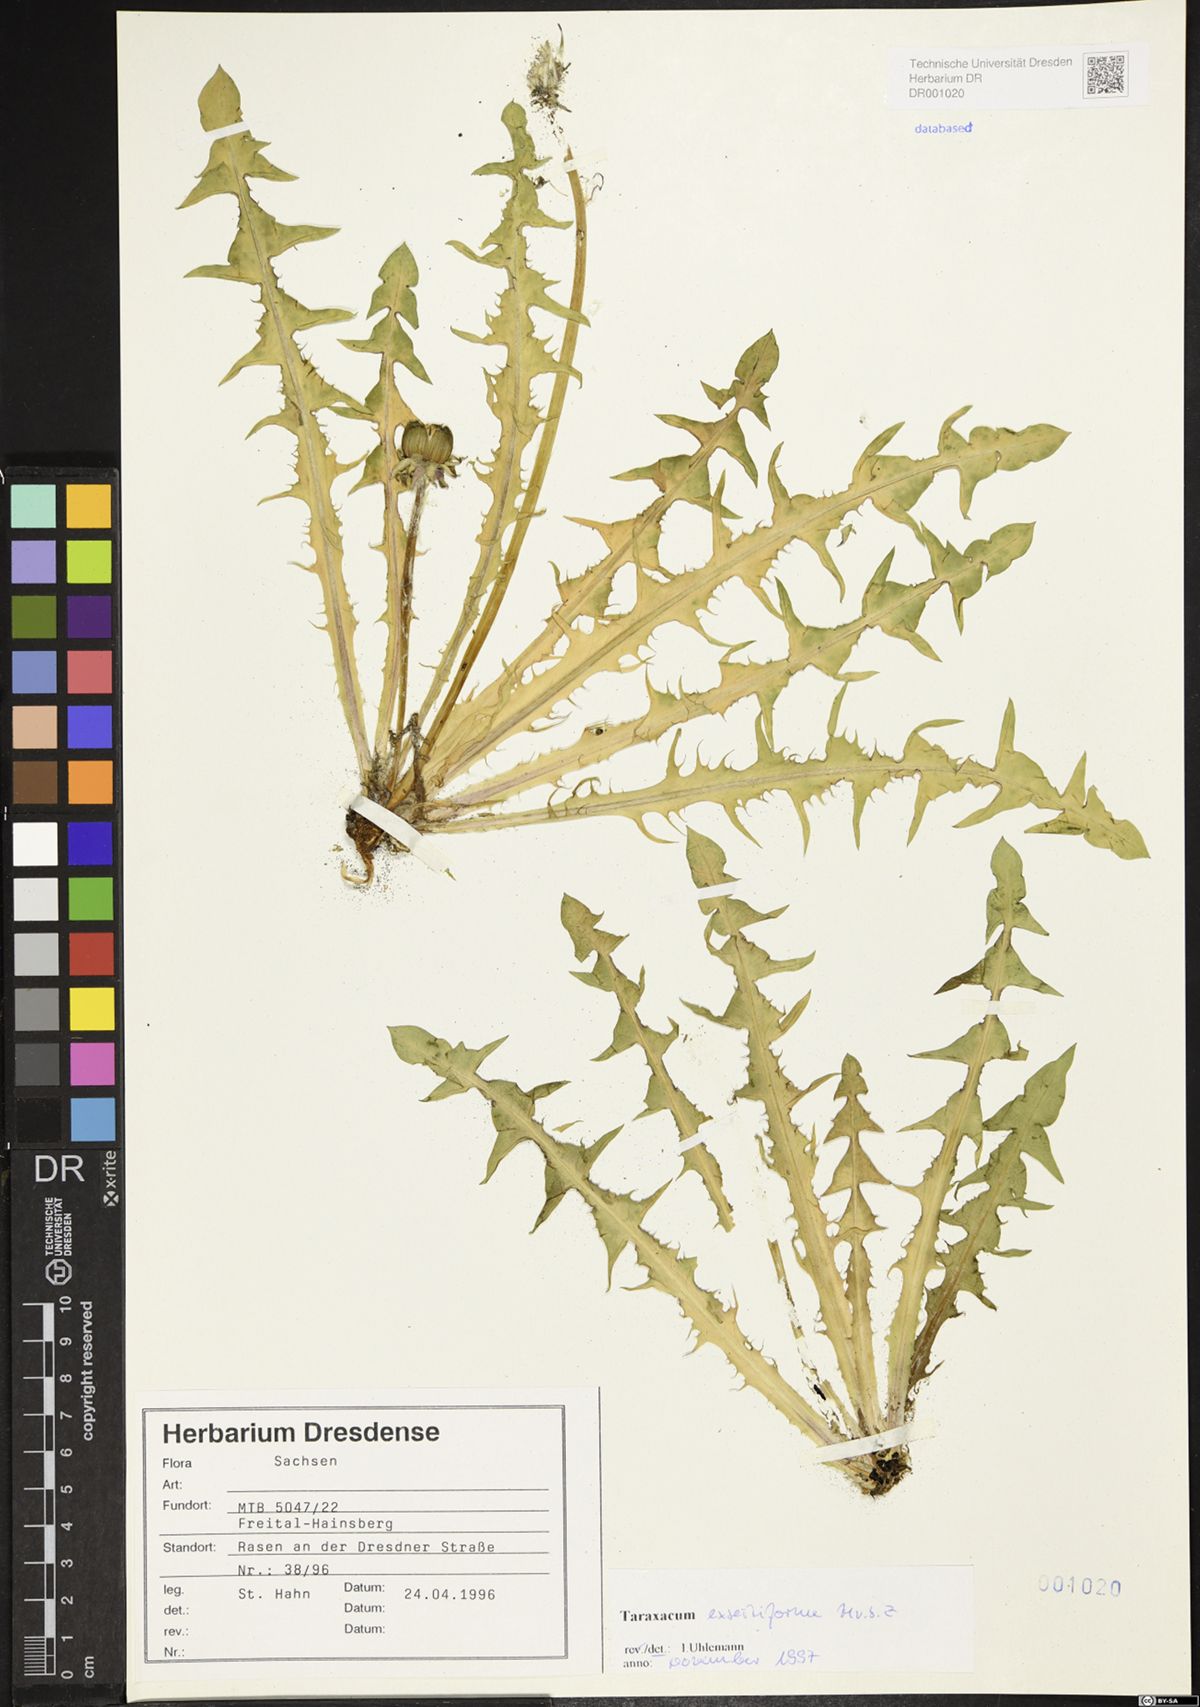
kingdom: Plantae
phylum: Tracheophyta
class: Magnoliopsida
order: Asterales
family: Asteraceae
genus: Taraxacum
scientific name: Taraxacum exsertiforme
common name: Erect-bracted dandelion
